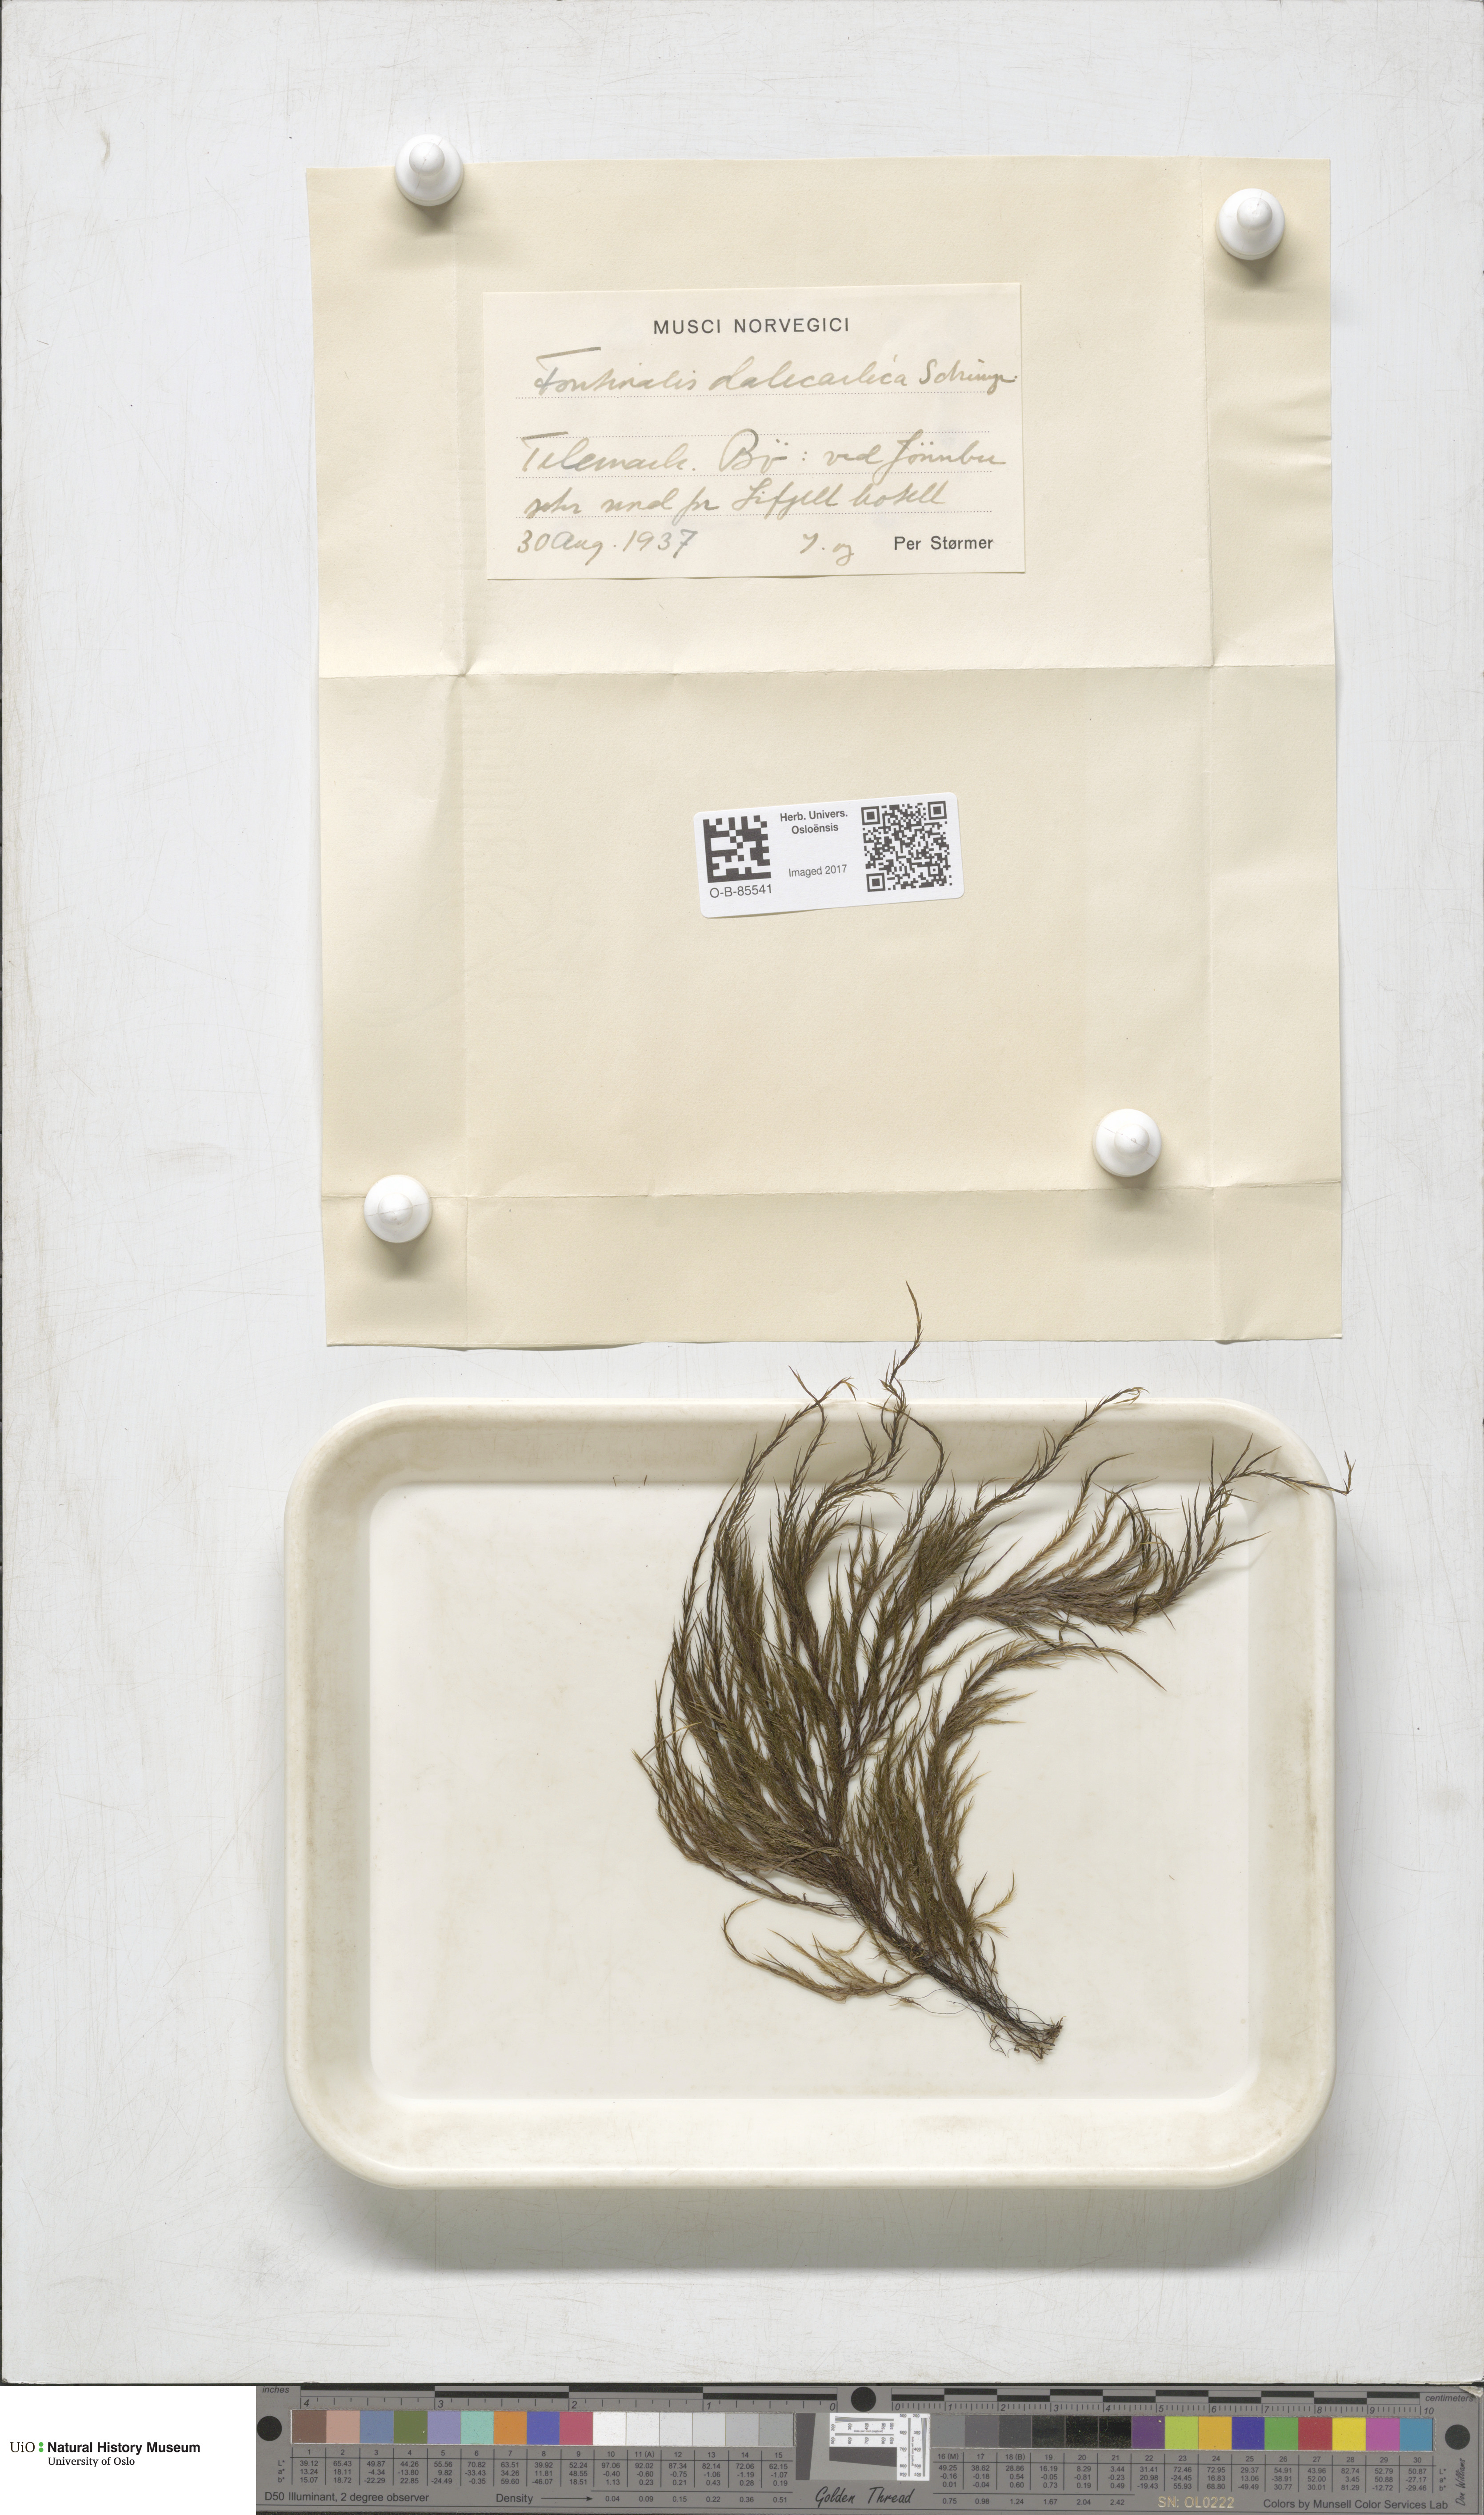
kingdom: Plantae
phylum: Bryophyta
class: Bryopsida
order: Hypnales
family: Fontinalaceae
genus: Fontinalis
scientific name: Fontinalis dalecarlica
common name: Slender water moss
